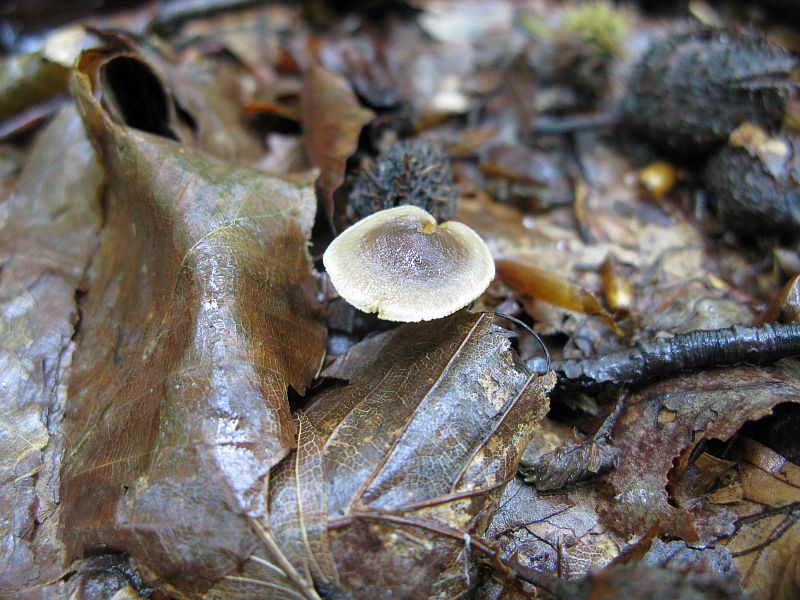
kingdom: Fungi
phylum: Basidiomycota
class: Agaricomycetes
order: Agaricales
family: Inocybaceae
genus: Inocybe
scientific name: Inocybe petiginosa
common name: liden trævlhat
